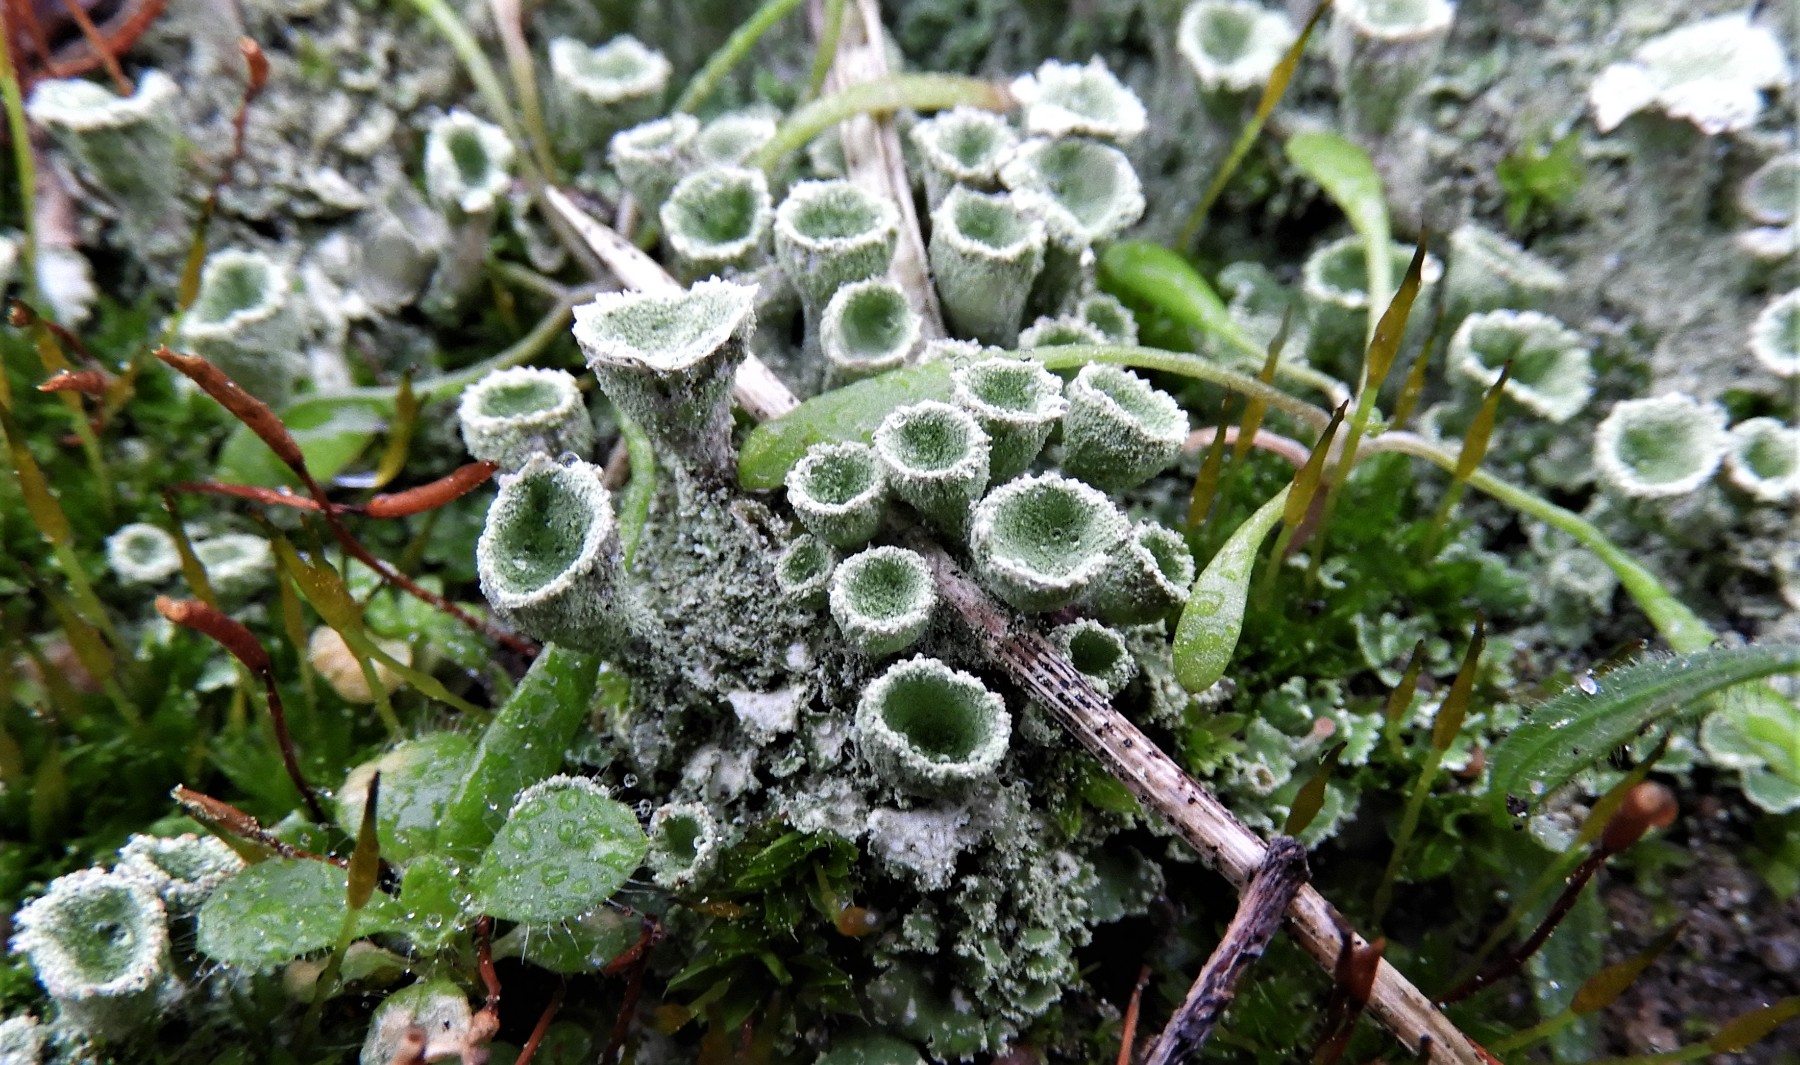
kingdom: Fungi
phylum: Ascomycota
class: Lecanoromycetes
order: Lecanorales
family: Cladoniaceae
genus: Cladonia
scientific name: Cladonia
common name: brungrøn bægerlav
